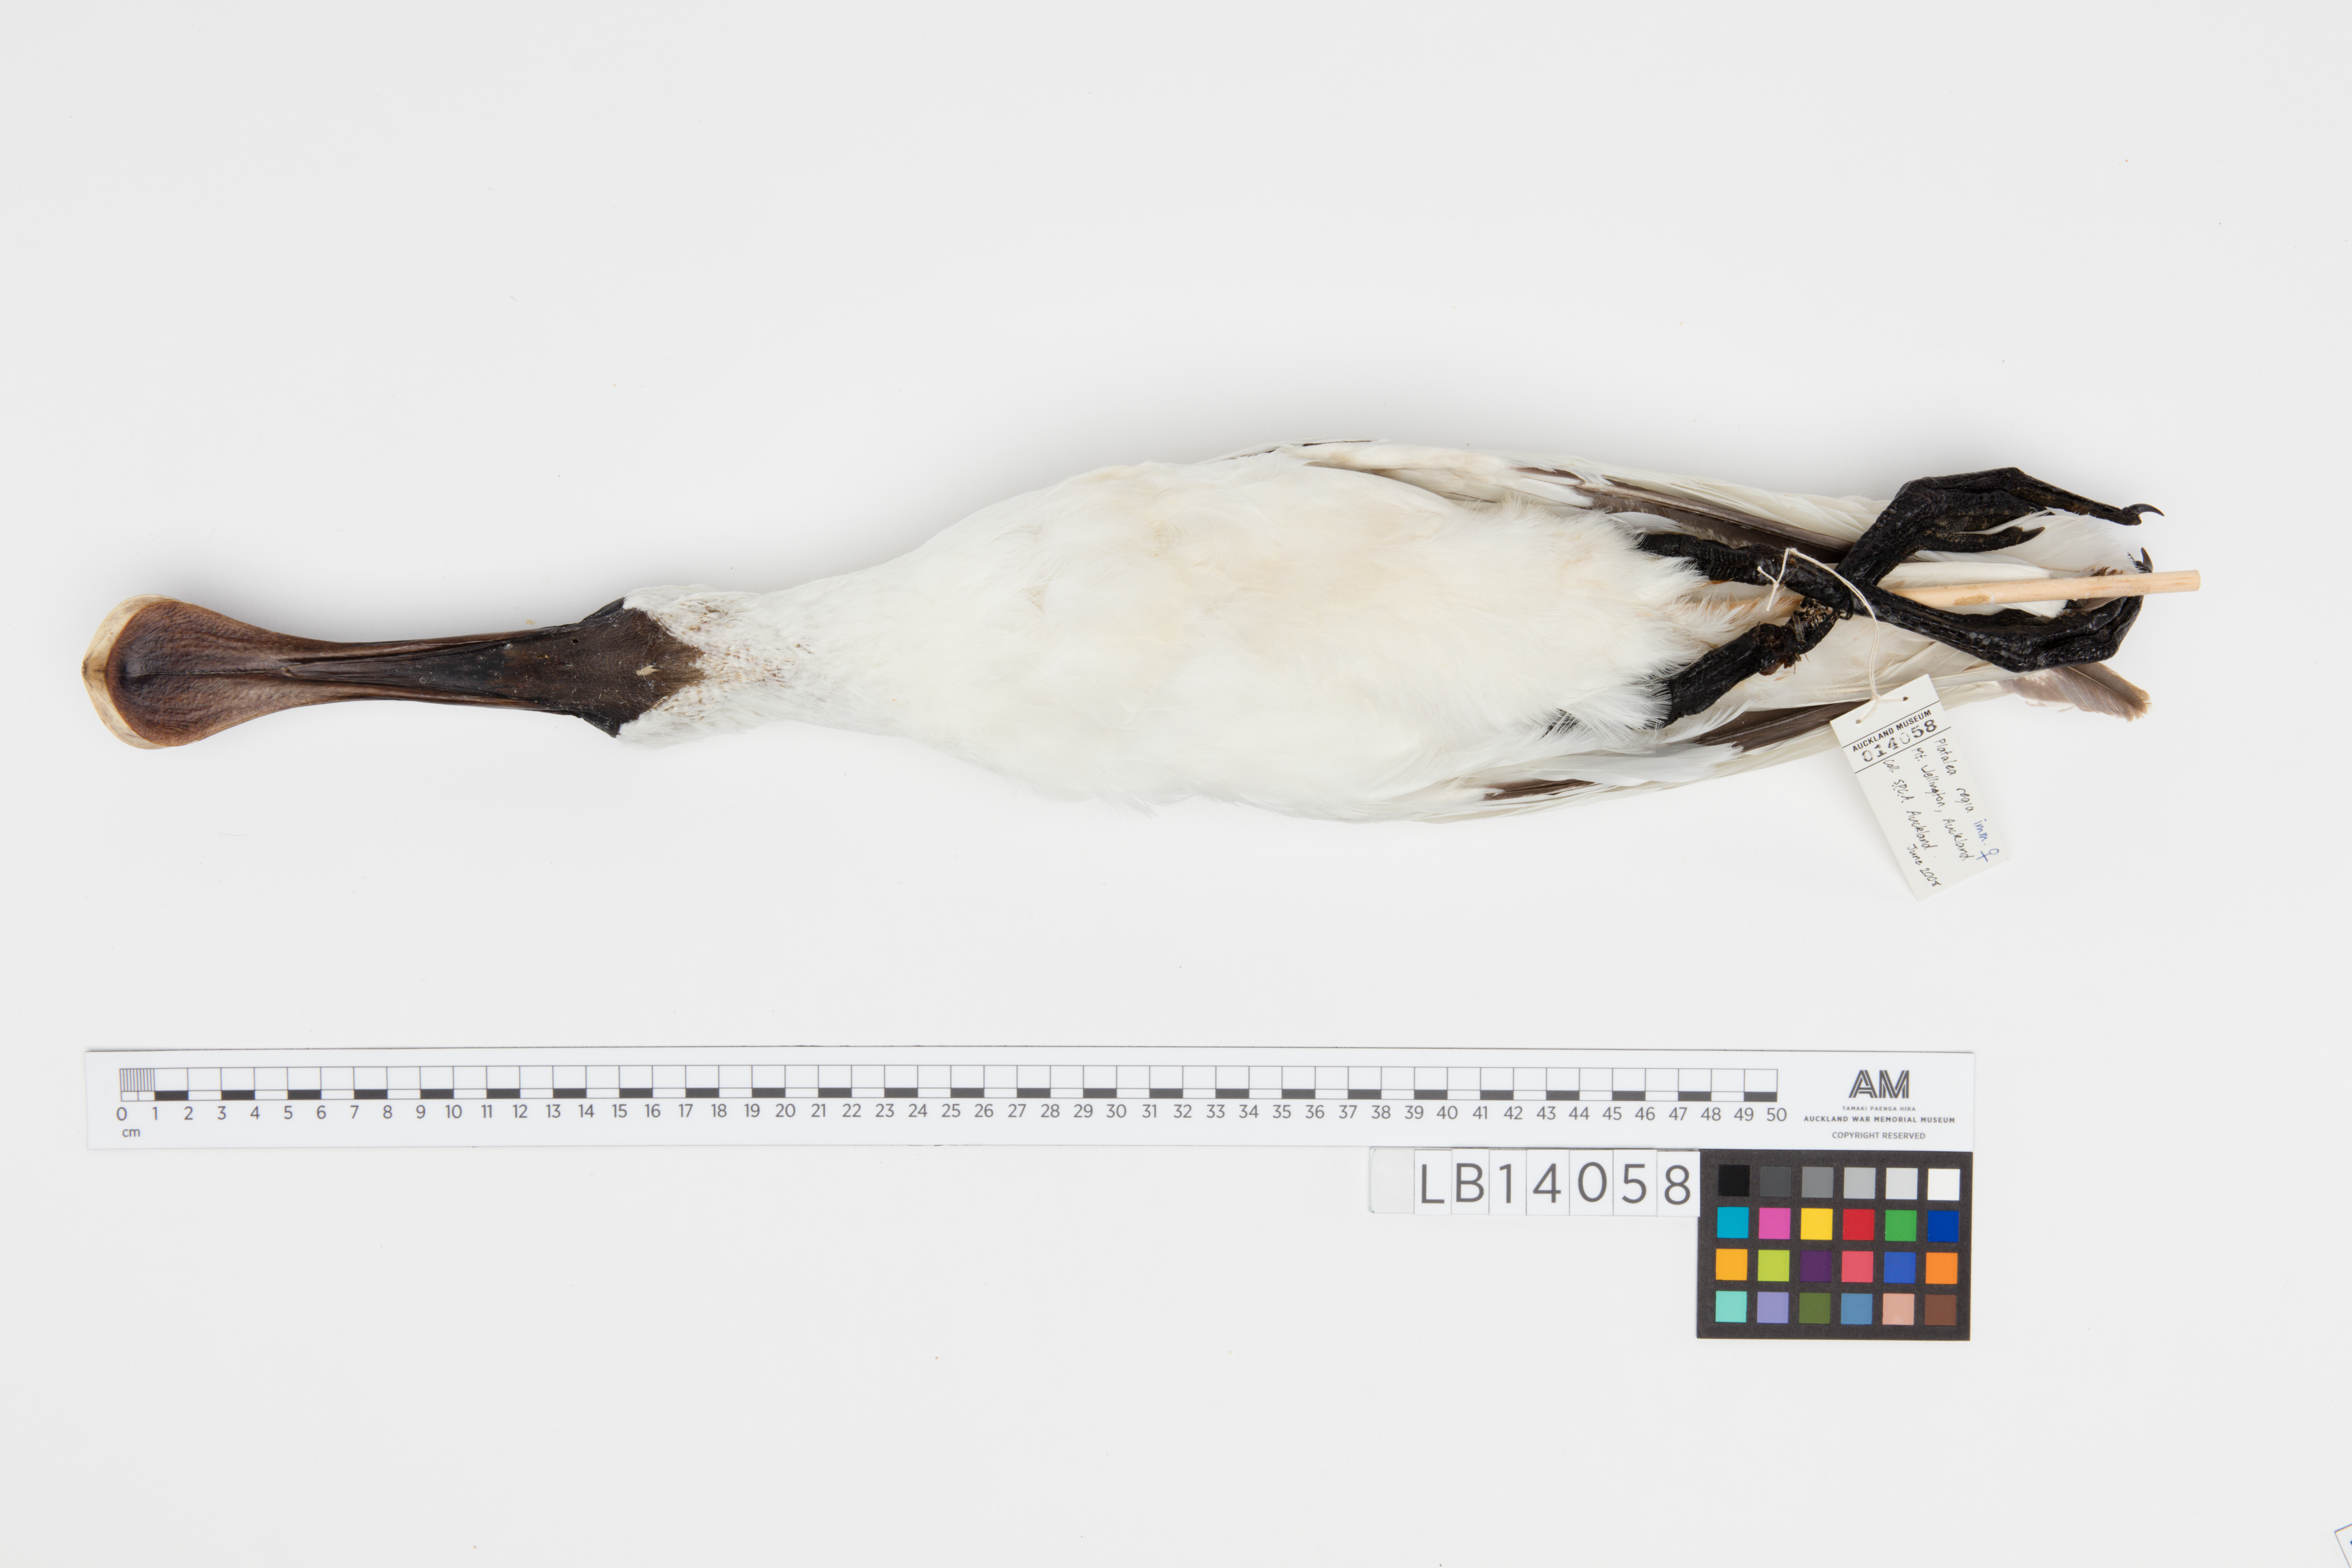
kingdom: Animalia
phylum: Chordata
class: Aves
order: Pelecaniformes
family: Threskiornithidae
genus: Platalea
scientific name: Platalea regia
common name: Royal spoonbill
